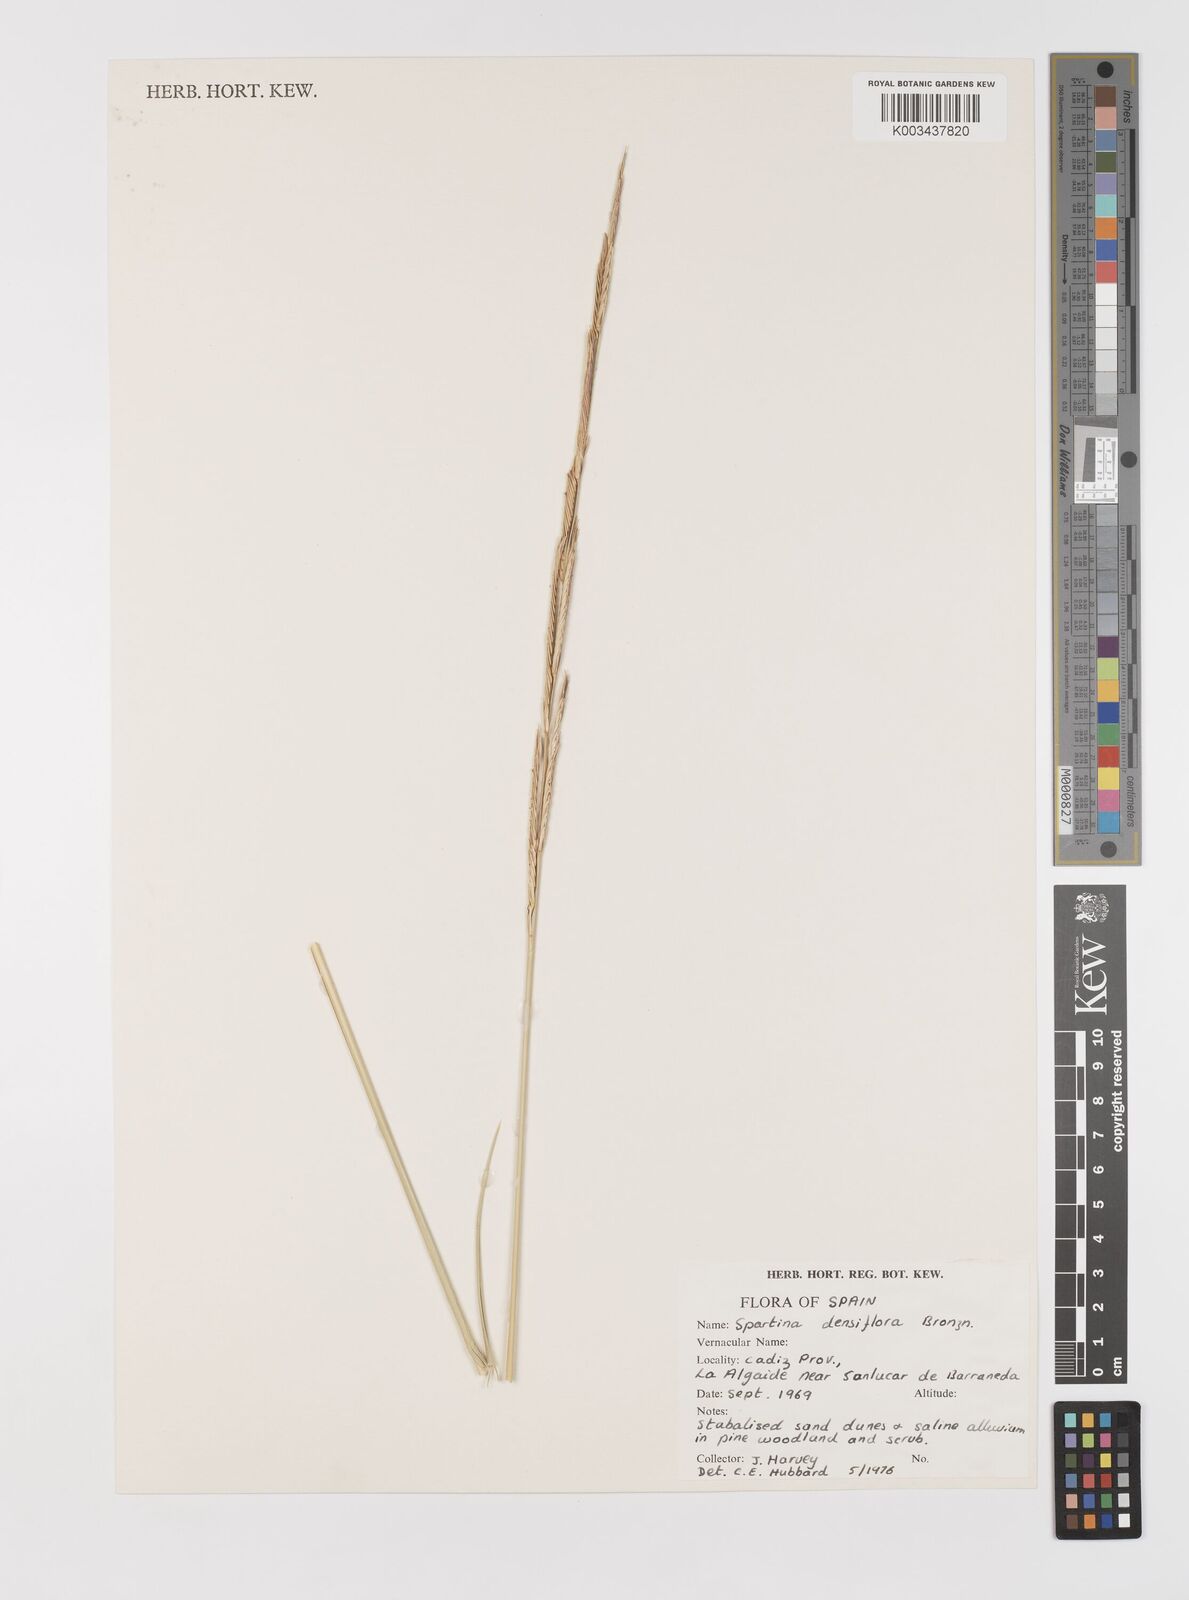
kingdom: Plantae
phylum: Tracheophyta
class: Liliopsida
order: Poales
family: Poaceae
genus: Sporobolus
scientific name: Sporobolus montevidensis
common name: Montevideo dropseed
